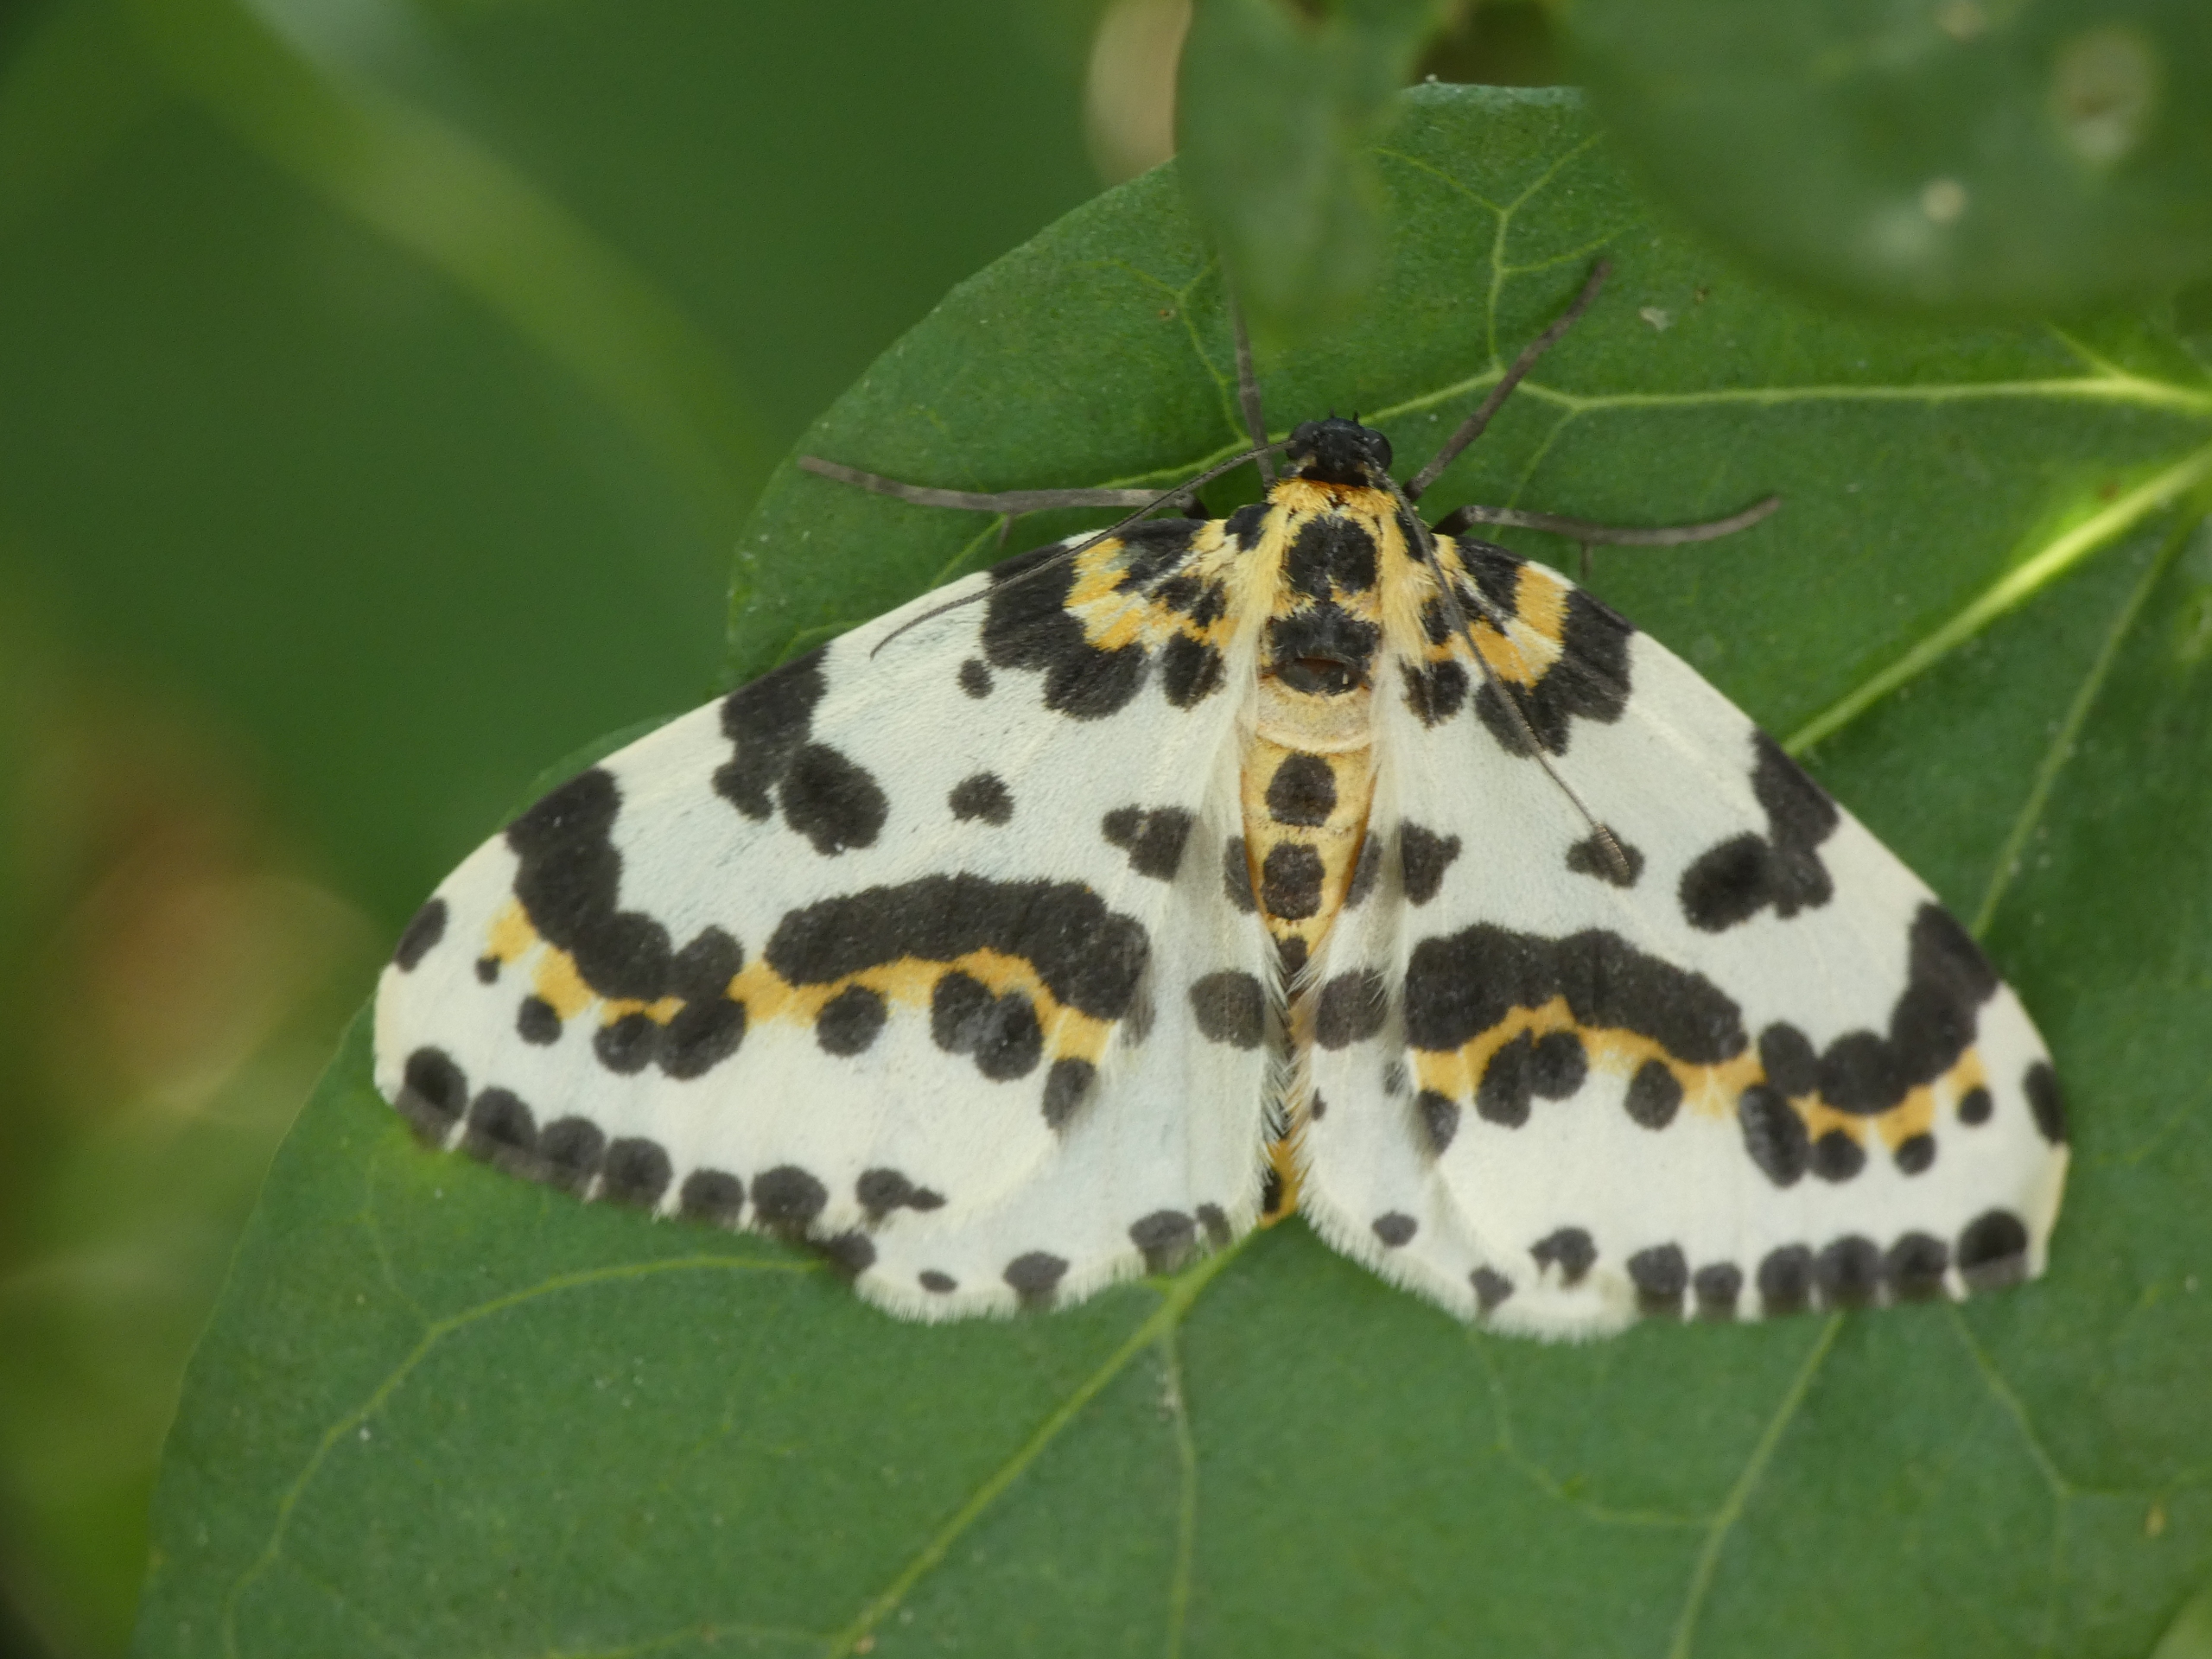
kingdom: Animalia
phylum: Arthropoda
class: Insecta
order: Lepidoptera
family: Geometridae
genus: Abraxas
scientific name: Abraxas grossulariata
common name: Harlekin
